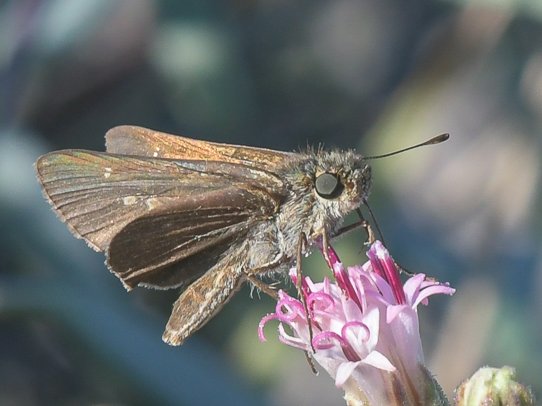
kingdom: Animalia
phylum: Arthropoda
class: Insecta
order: Lepidoptera
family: Hesperiidae
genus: Panoquina
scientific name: Panoquina errans
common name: Wandering Skipper
